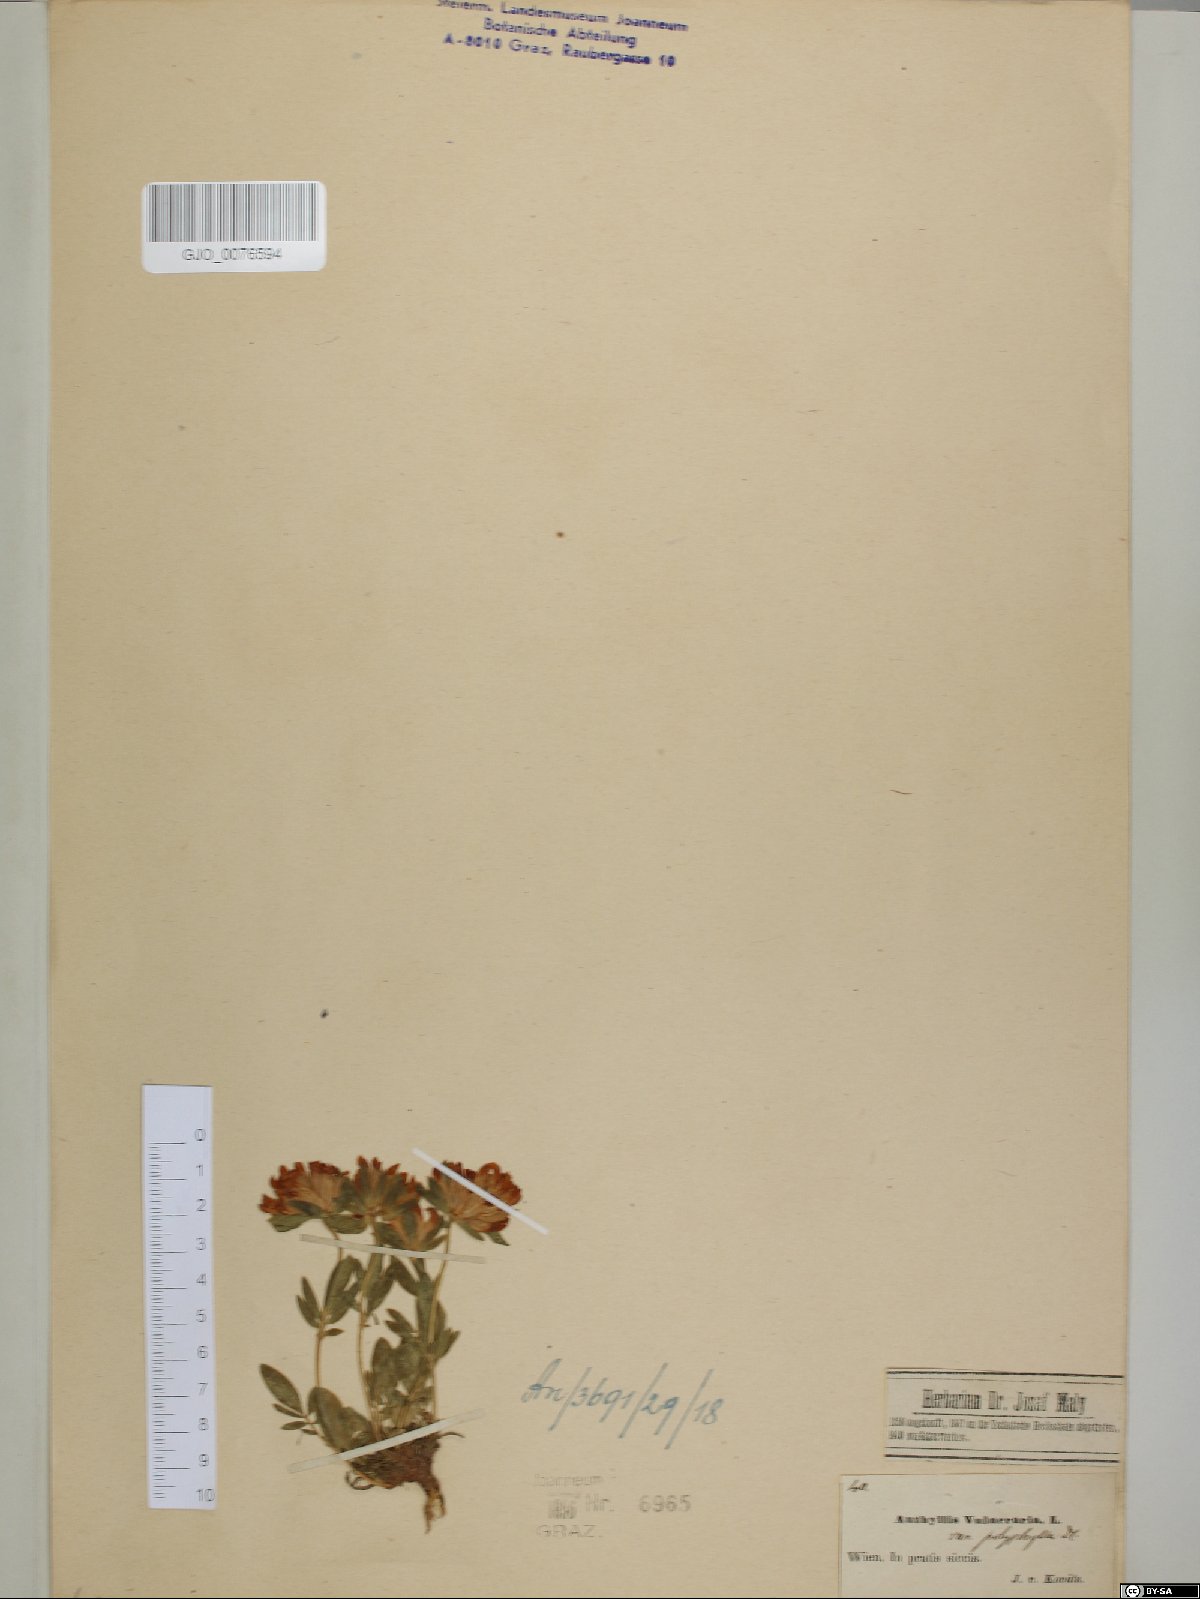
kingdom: Plantae
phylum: Tracheophyta
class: Magnoliopsida
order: Fabales
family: Fabaceae
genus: Anthyllis
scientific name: Anthyllis vulneraria
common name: Kidney vetch
